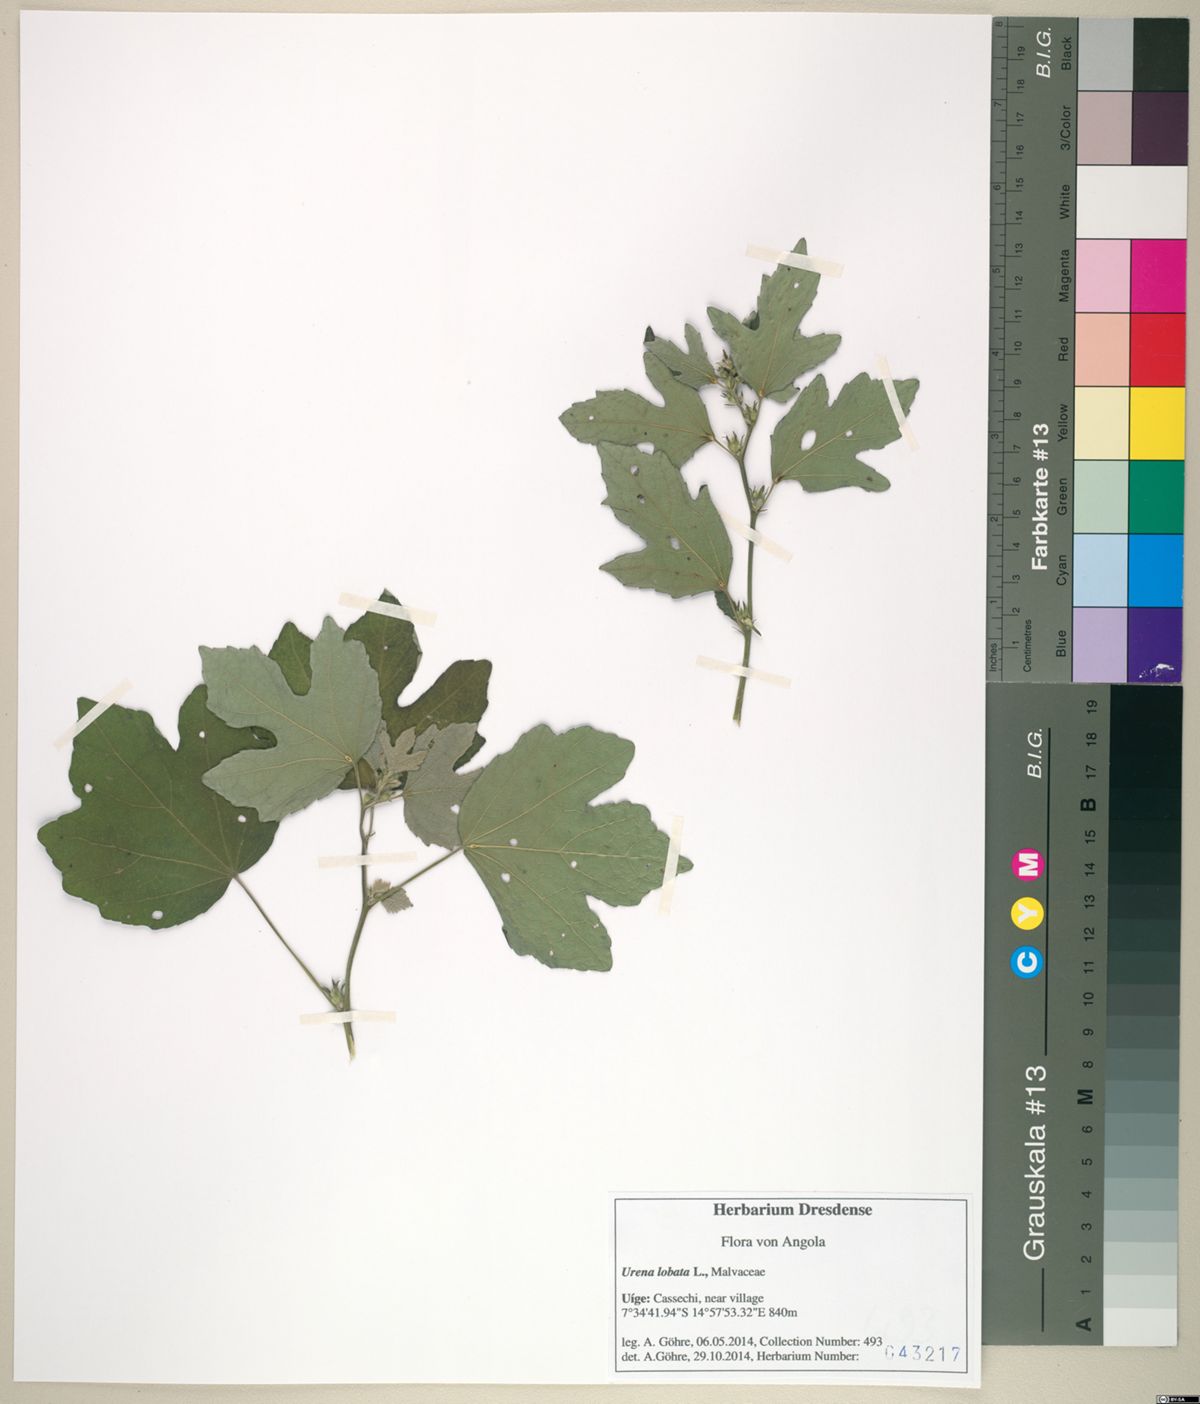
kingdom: Plantae
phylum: Tracheophyta
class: Magnoliopsida
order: Malvales
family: Malvaceae
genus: Urena
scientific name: Urena lobata
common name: Caesarweed
